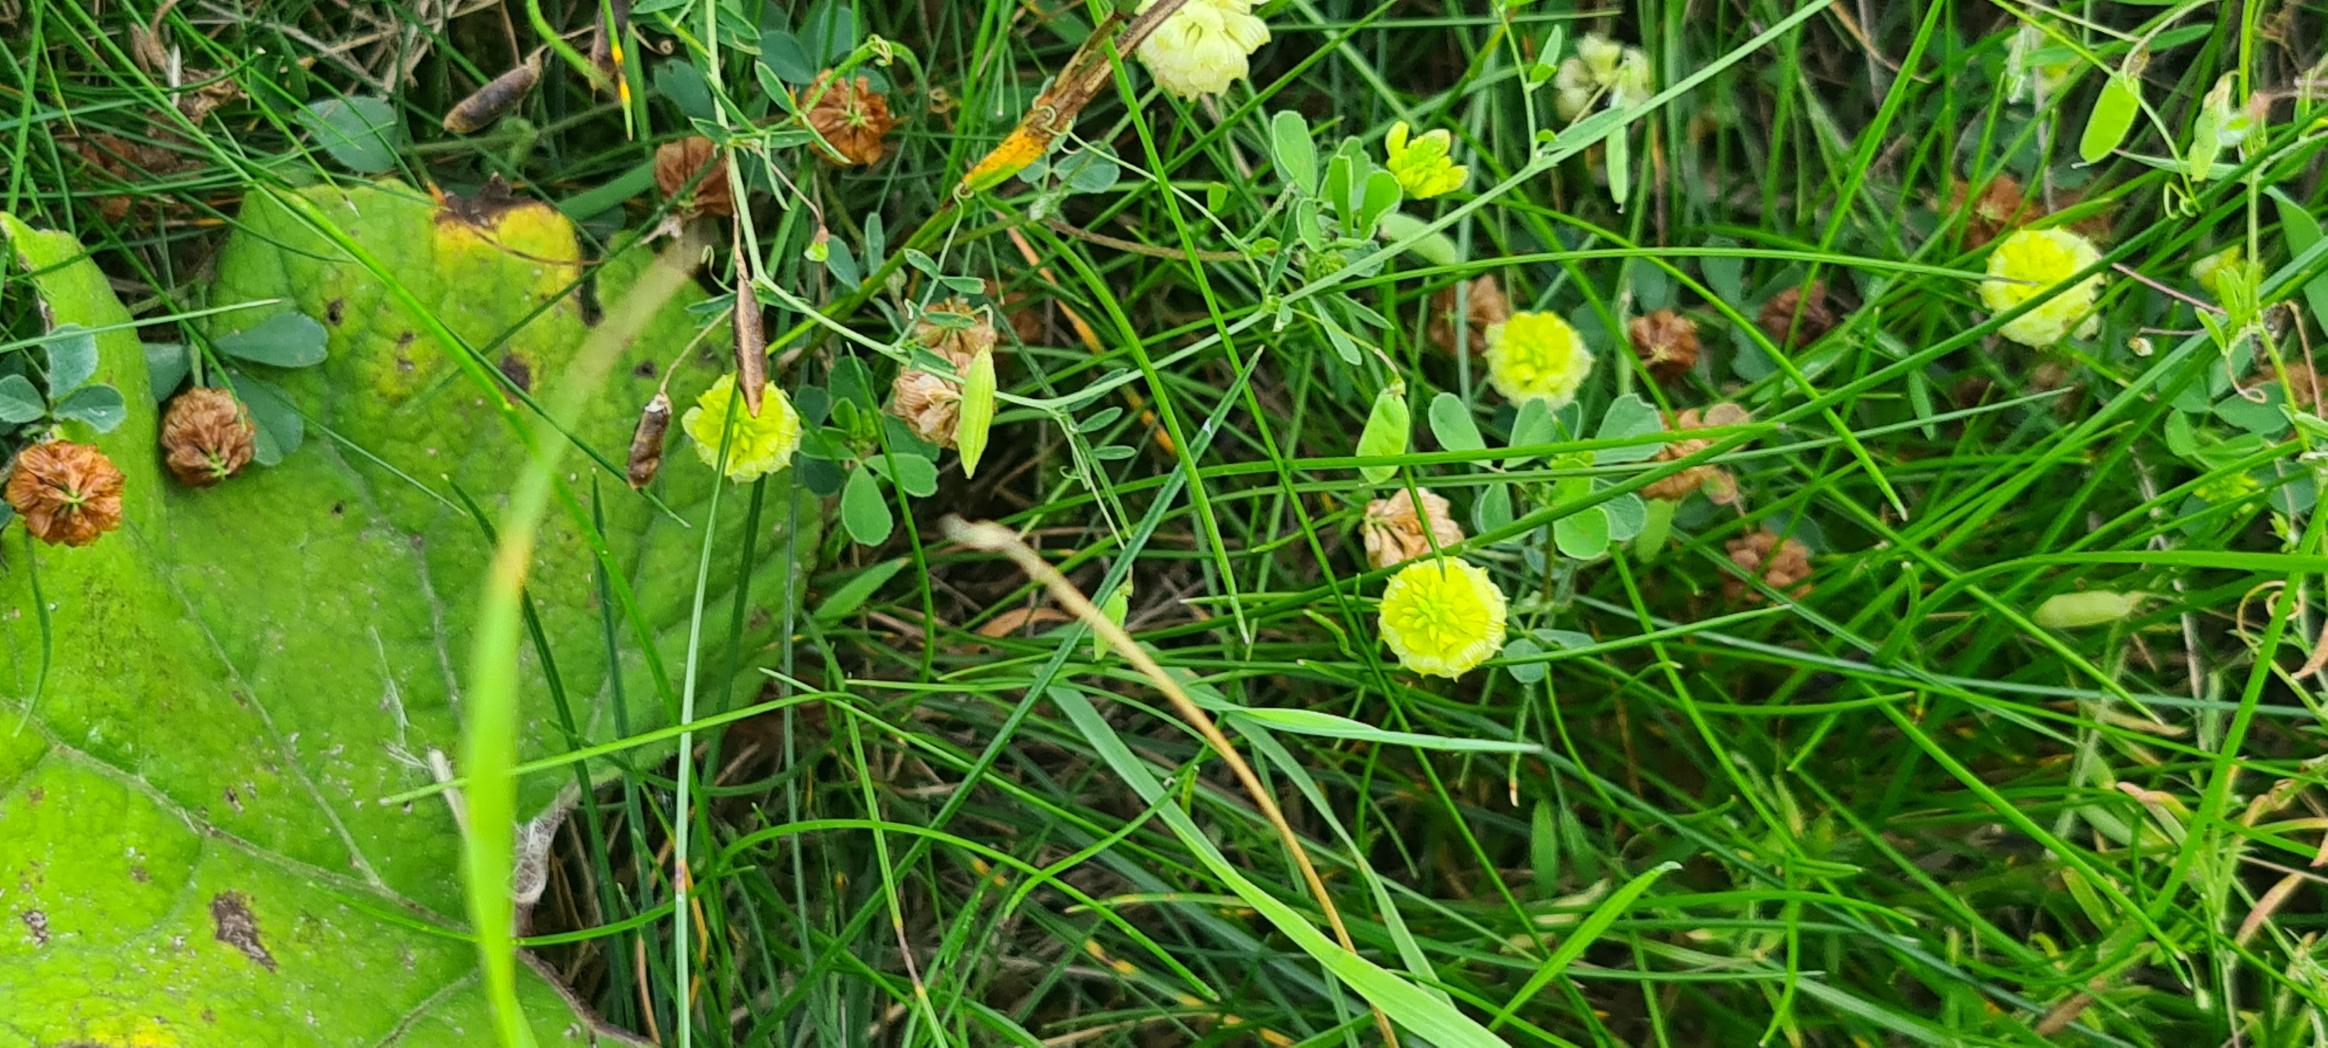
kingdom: Plantae
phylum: Tracheophyta
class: Magnoliopsida
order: Fabales
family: Fabaceae
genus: Trifolium
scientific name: Trifolium campestre
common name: Gul kløver
